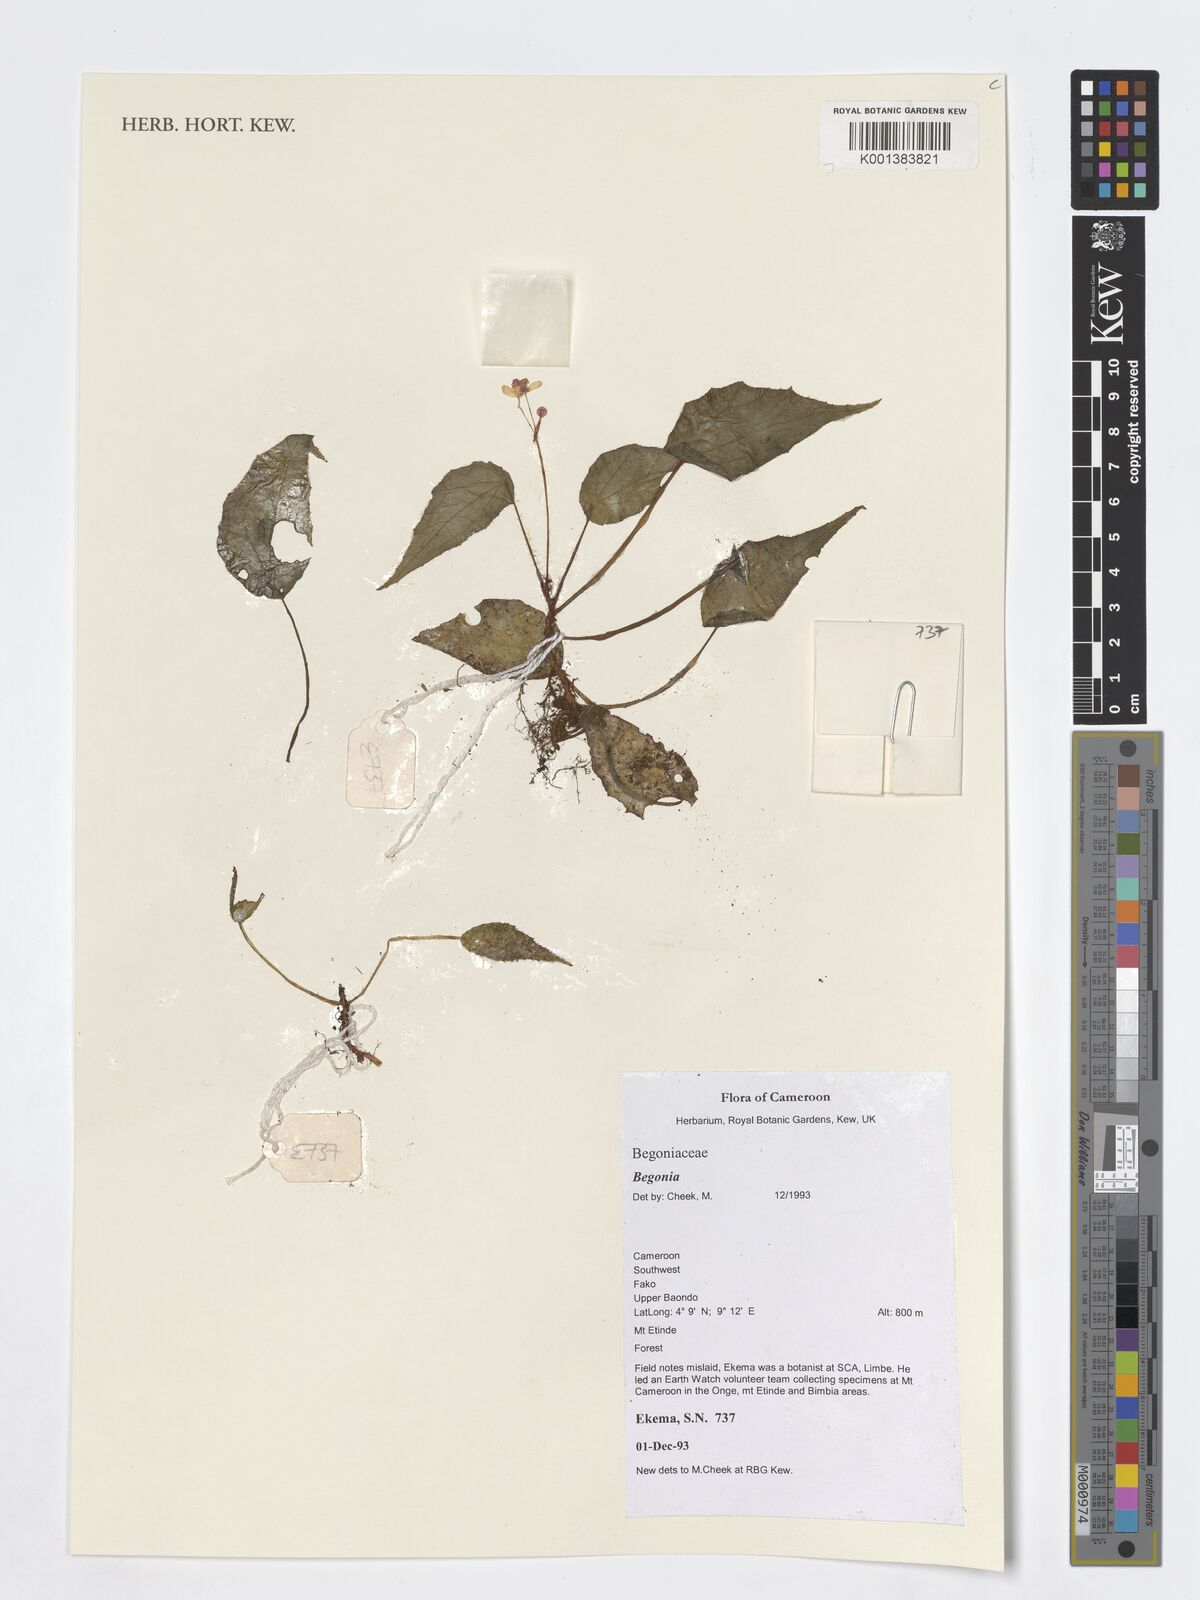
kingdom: Plantae
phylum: Tracheophyta
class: Magnoliopsida
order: Cucurbitales
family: Begoniaceae
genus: Begonia
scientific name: Begonia
